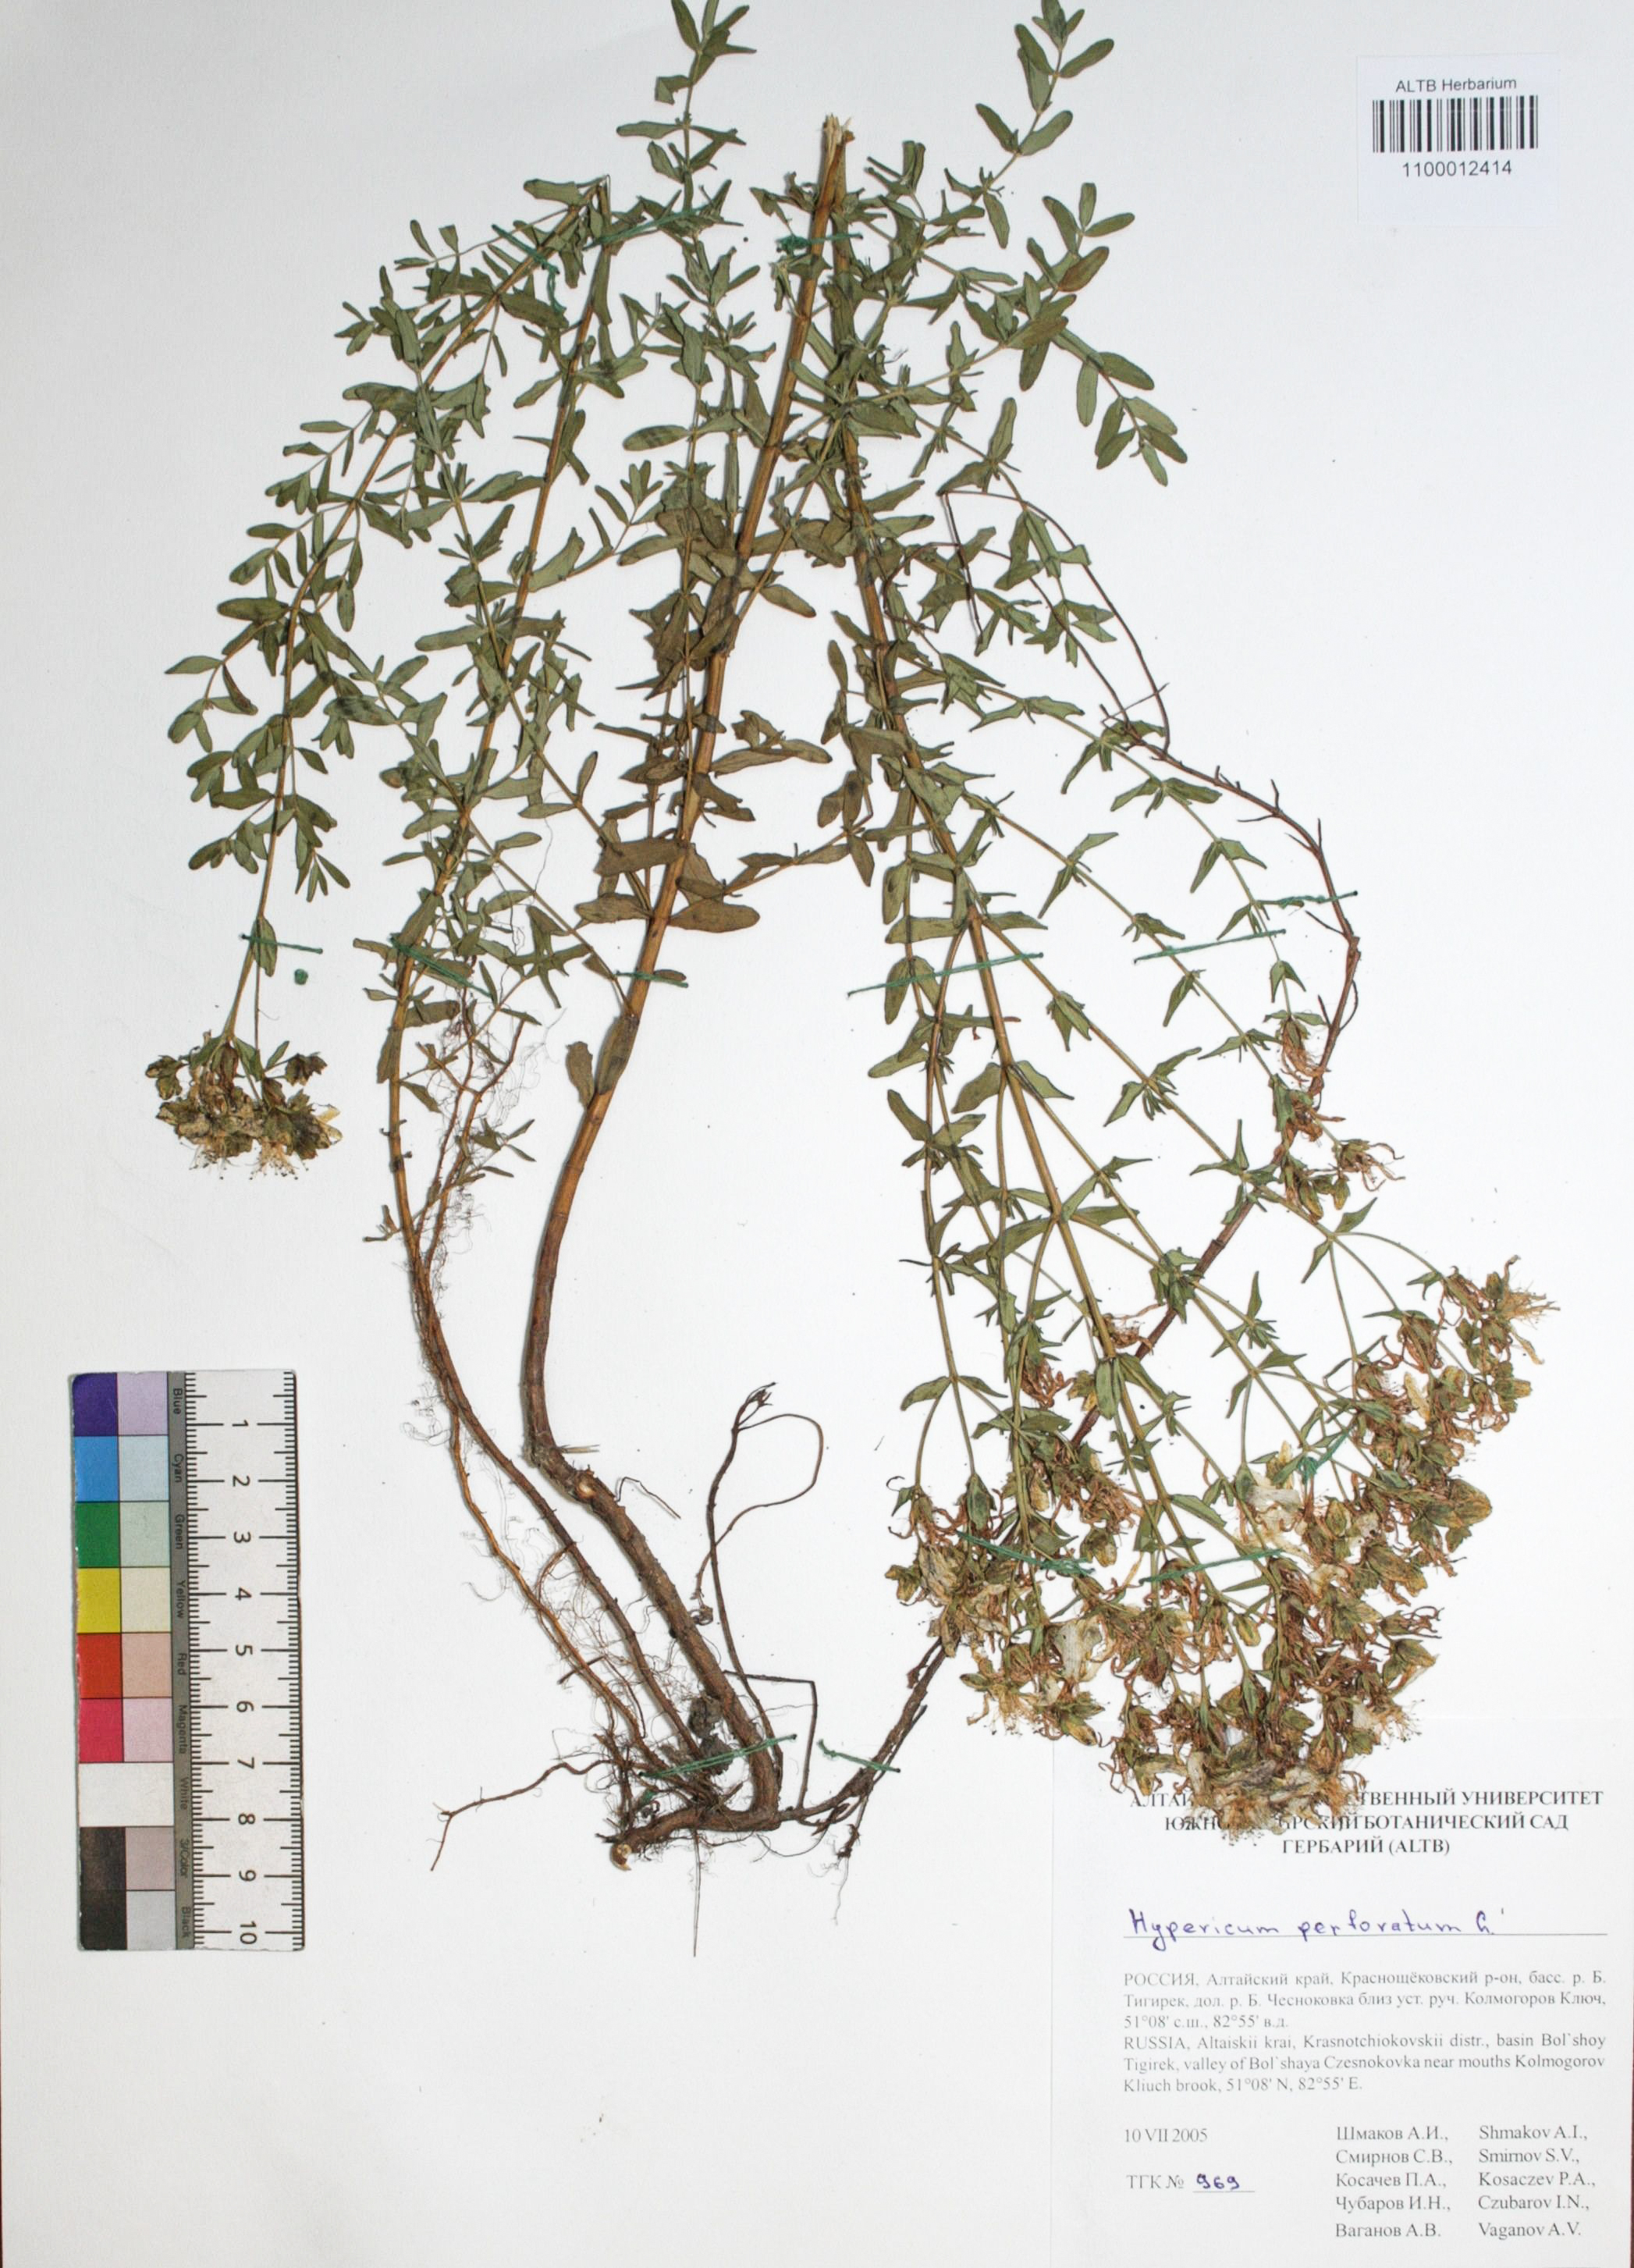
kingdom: Plantae
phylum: Tracheophyta
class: Magnoliopsida
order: Malpighiales
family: Hypericaceae
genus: Hypericum
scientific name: Hypericum perforatum
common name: Common st. johnswort
